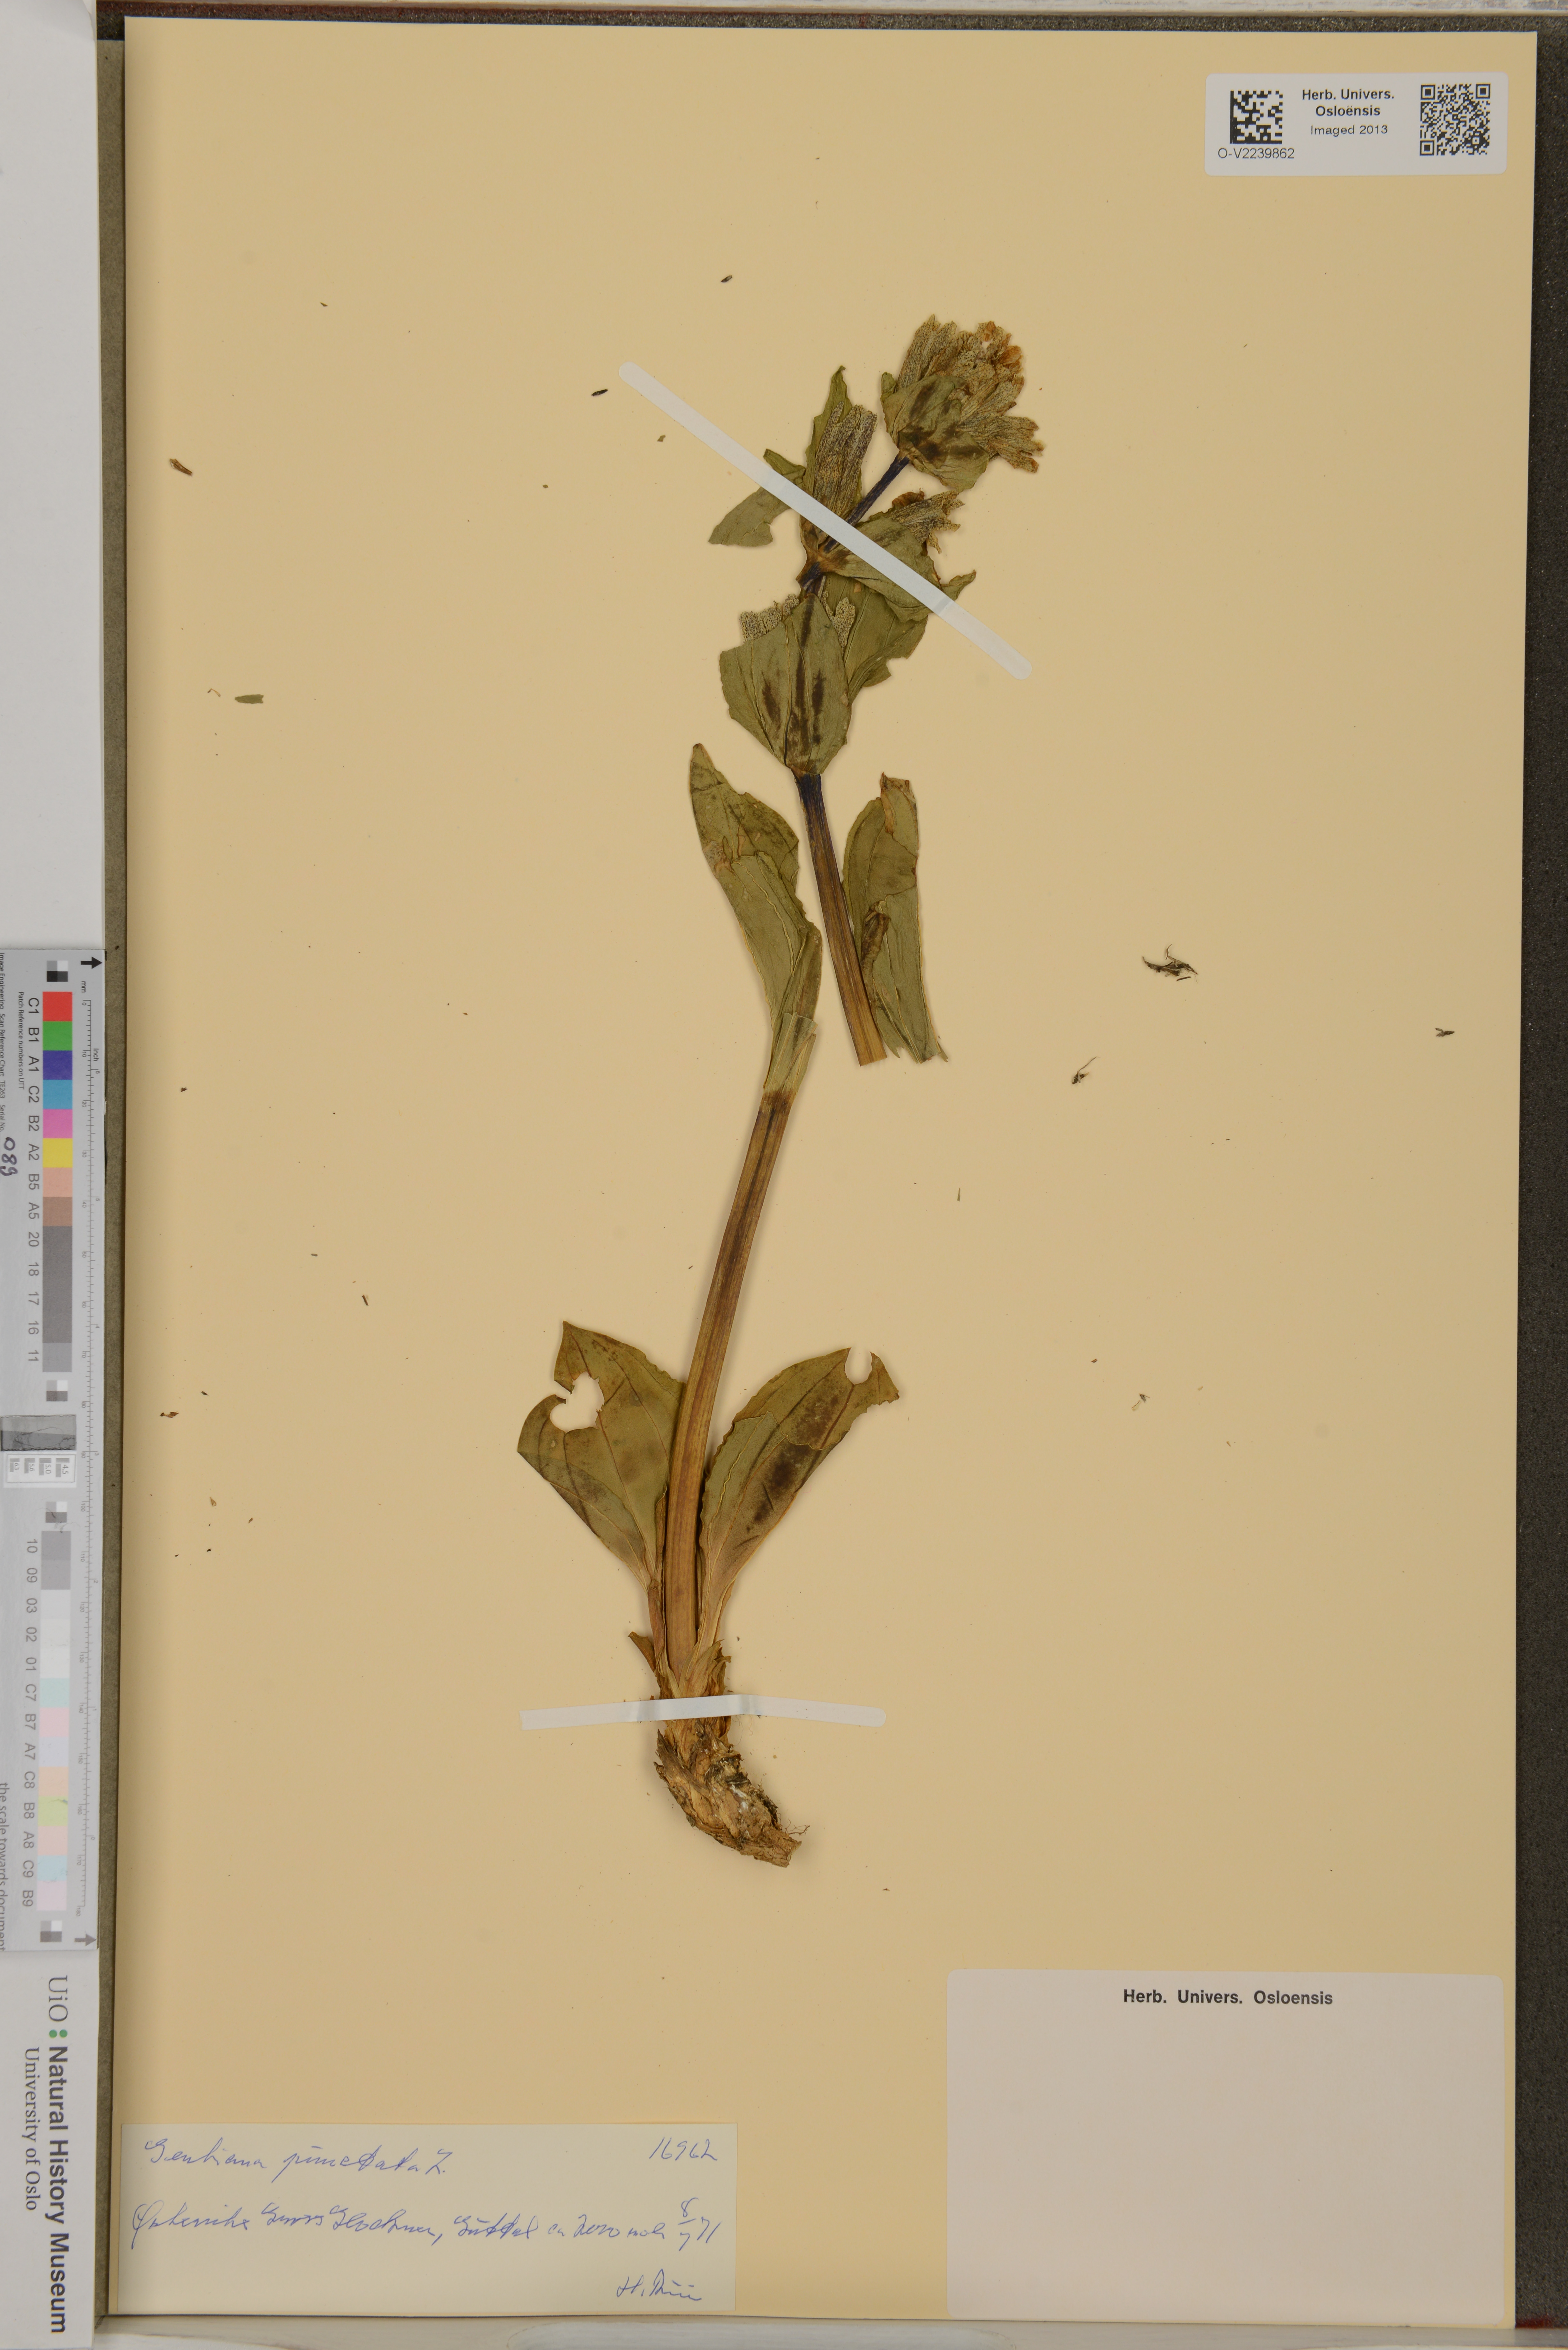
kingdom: Plantae
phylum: Tracheophyta
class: Magnoliopsida
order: Gentianales
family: Gentianaceae
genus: Gentiana
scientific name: Gentiana punctata
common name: Spotted gentian
